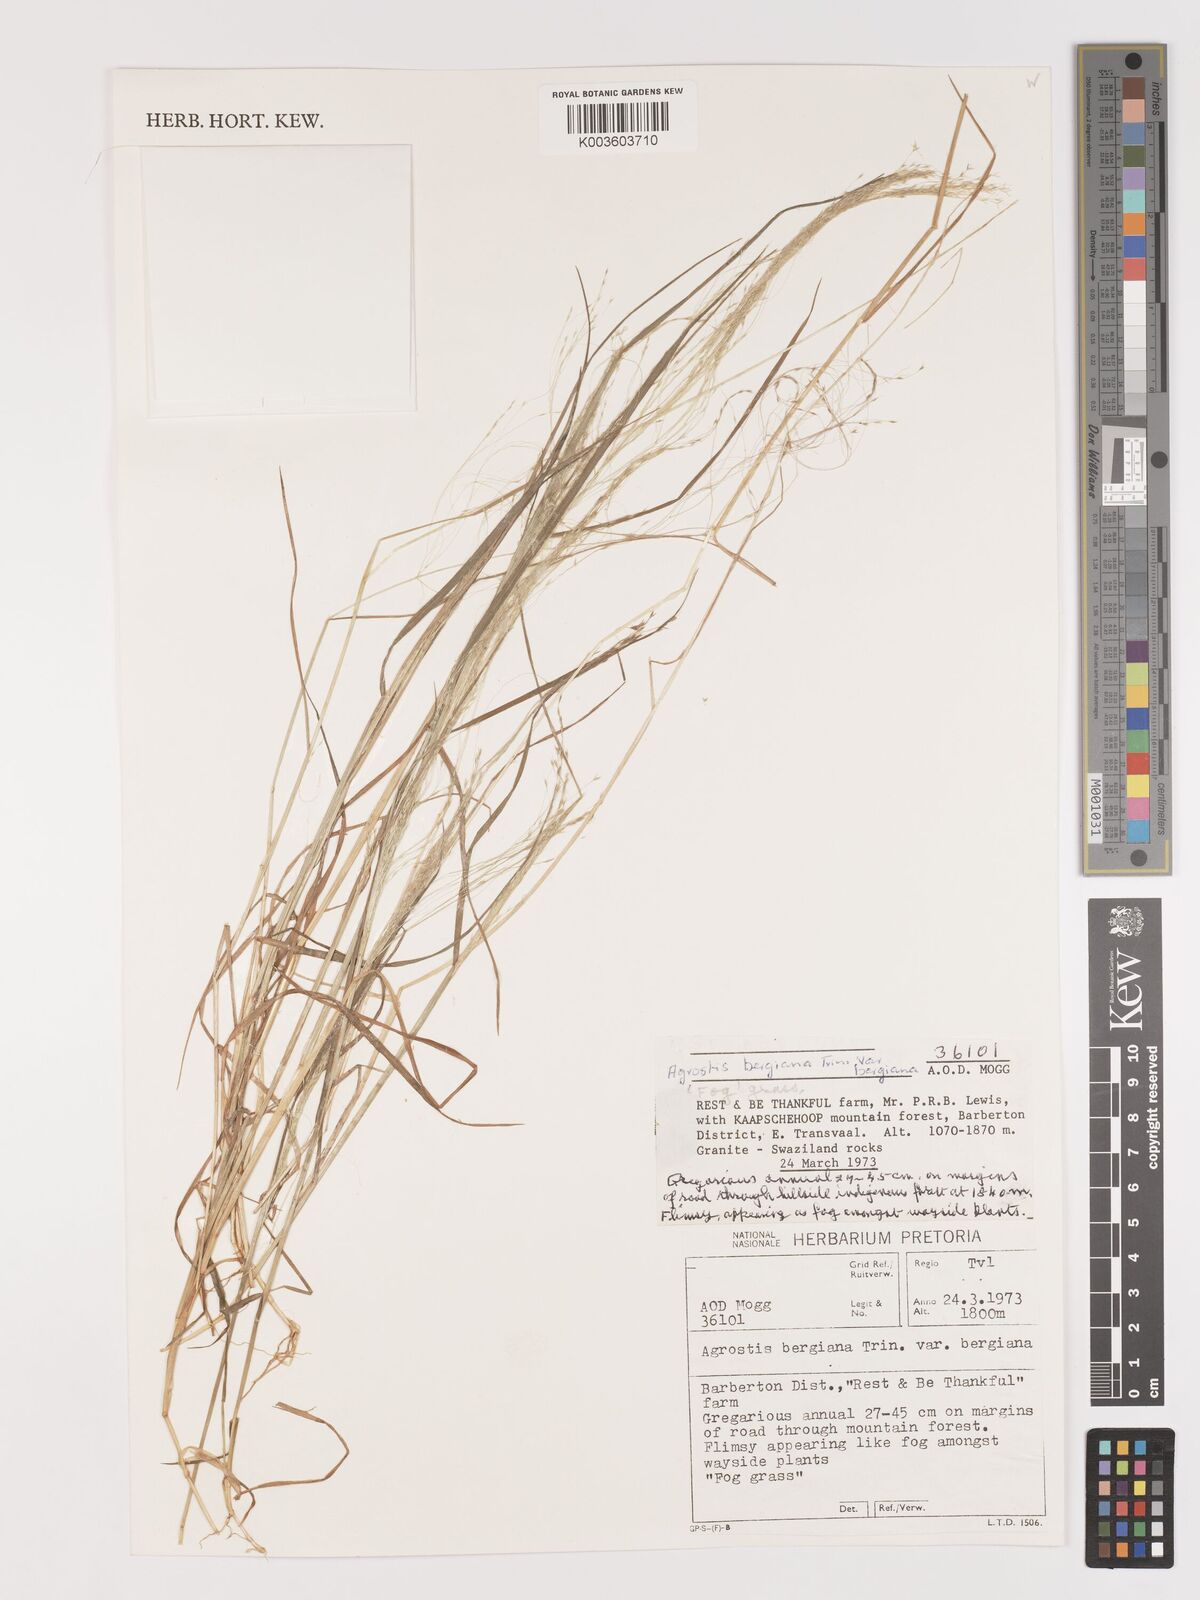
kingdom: Plantae
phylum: Tracheophyta
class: Liliopsida
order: Poales
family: Poaceae
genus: Agrostis
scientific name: Agrostis bergiana
